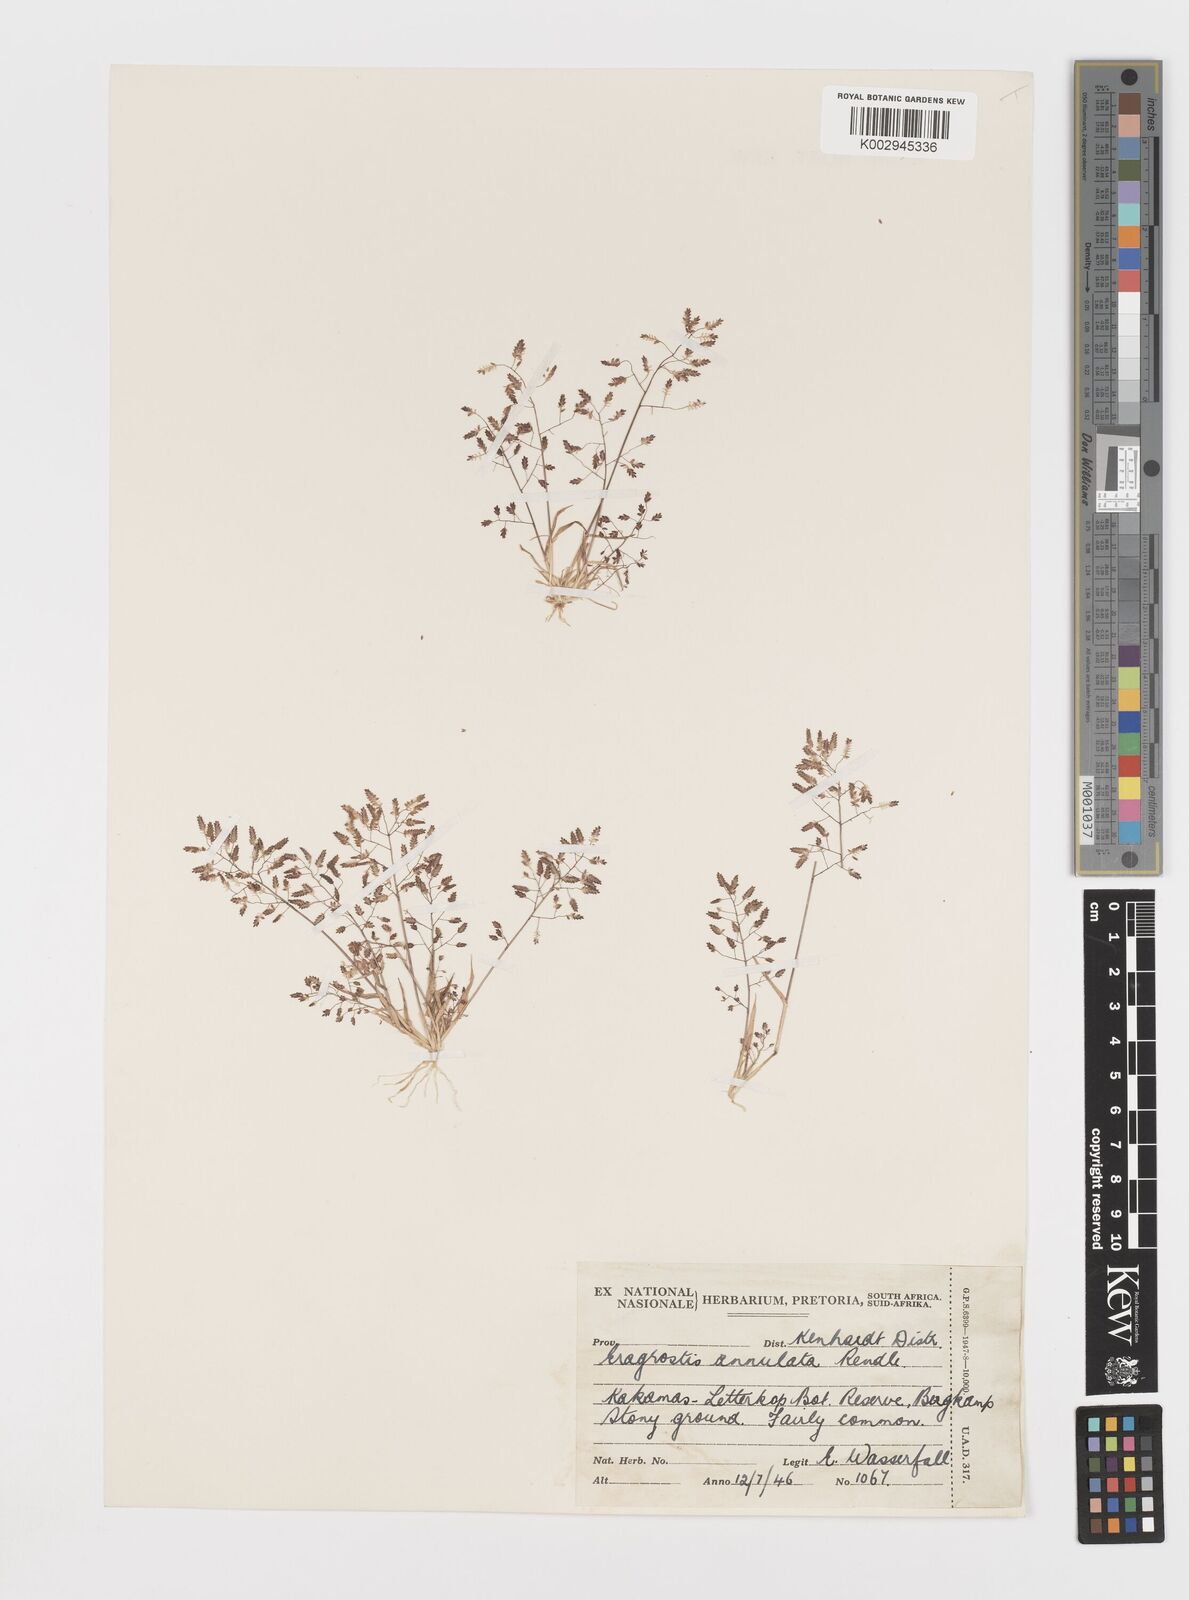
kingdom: Plantae
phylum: Tracheophyta
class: Liliopsida
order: Poales
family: Poaceae
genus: Eragrostis
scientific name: Eragrostis annulata
